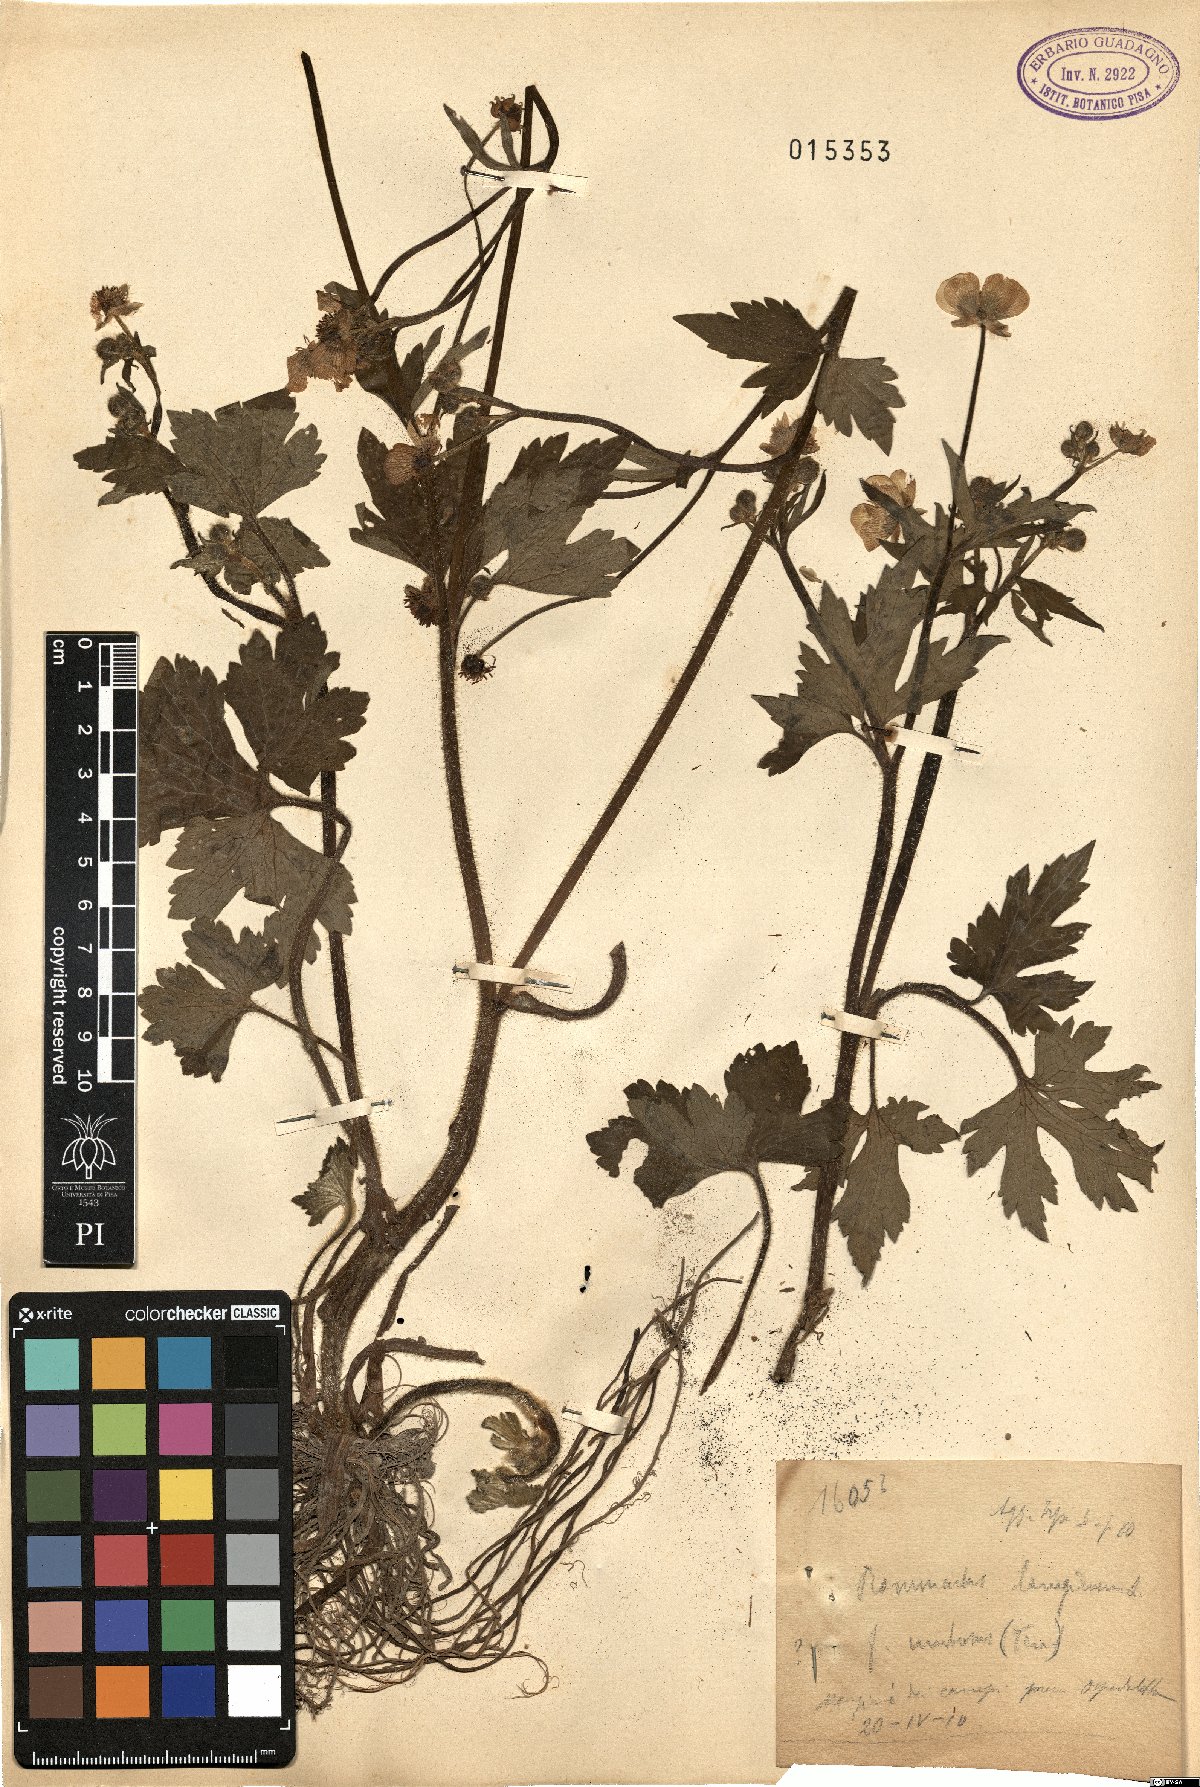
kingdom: Plantae
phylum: Tracheophyta
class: Magnoliopsida
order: Ranunculales
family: Ranunculaceae
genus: Ranunculus
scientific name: Ranunculus lanuginosus
